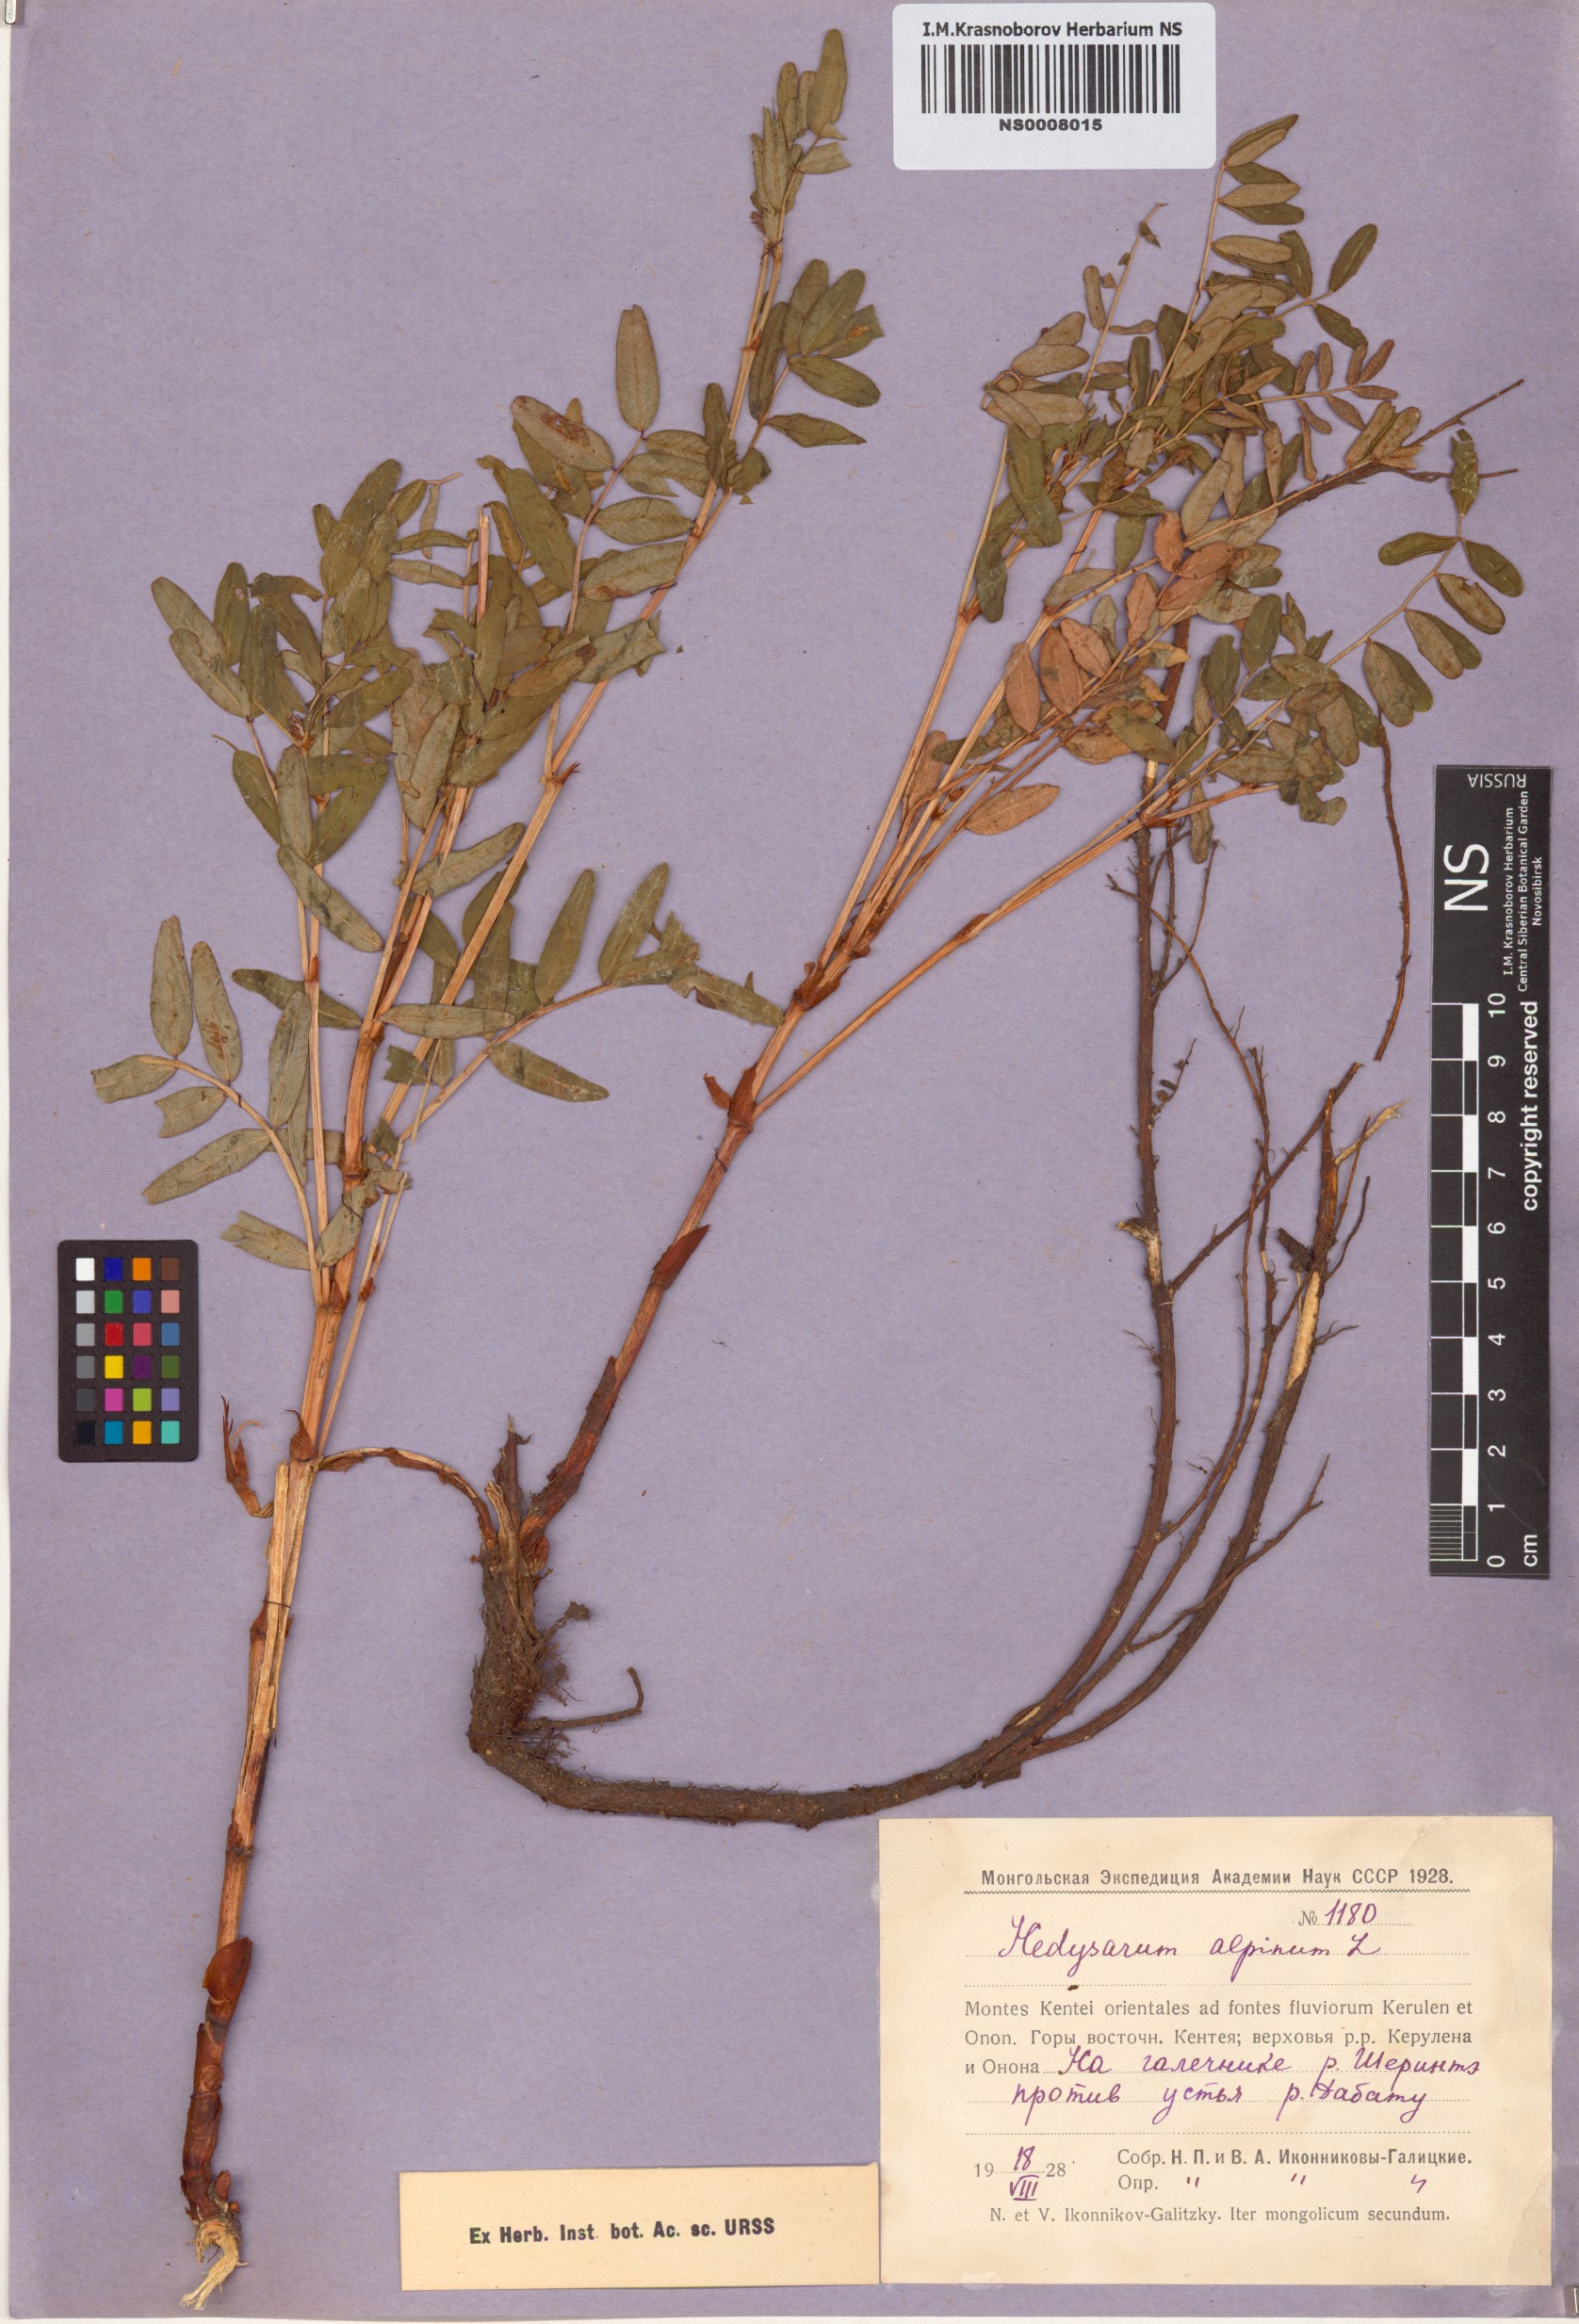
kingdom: Plantae
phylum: Tracheophyta
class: Magnoliopsida
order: Fabales
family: Fabaceae
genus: Hedysarum
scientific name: Hedysarum alpinum
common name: Alpine sweet-vetch
